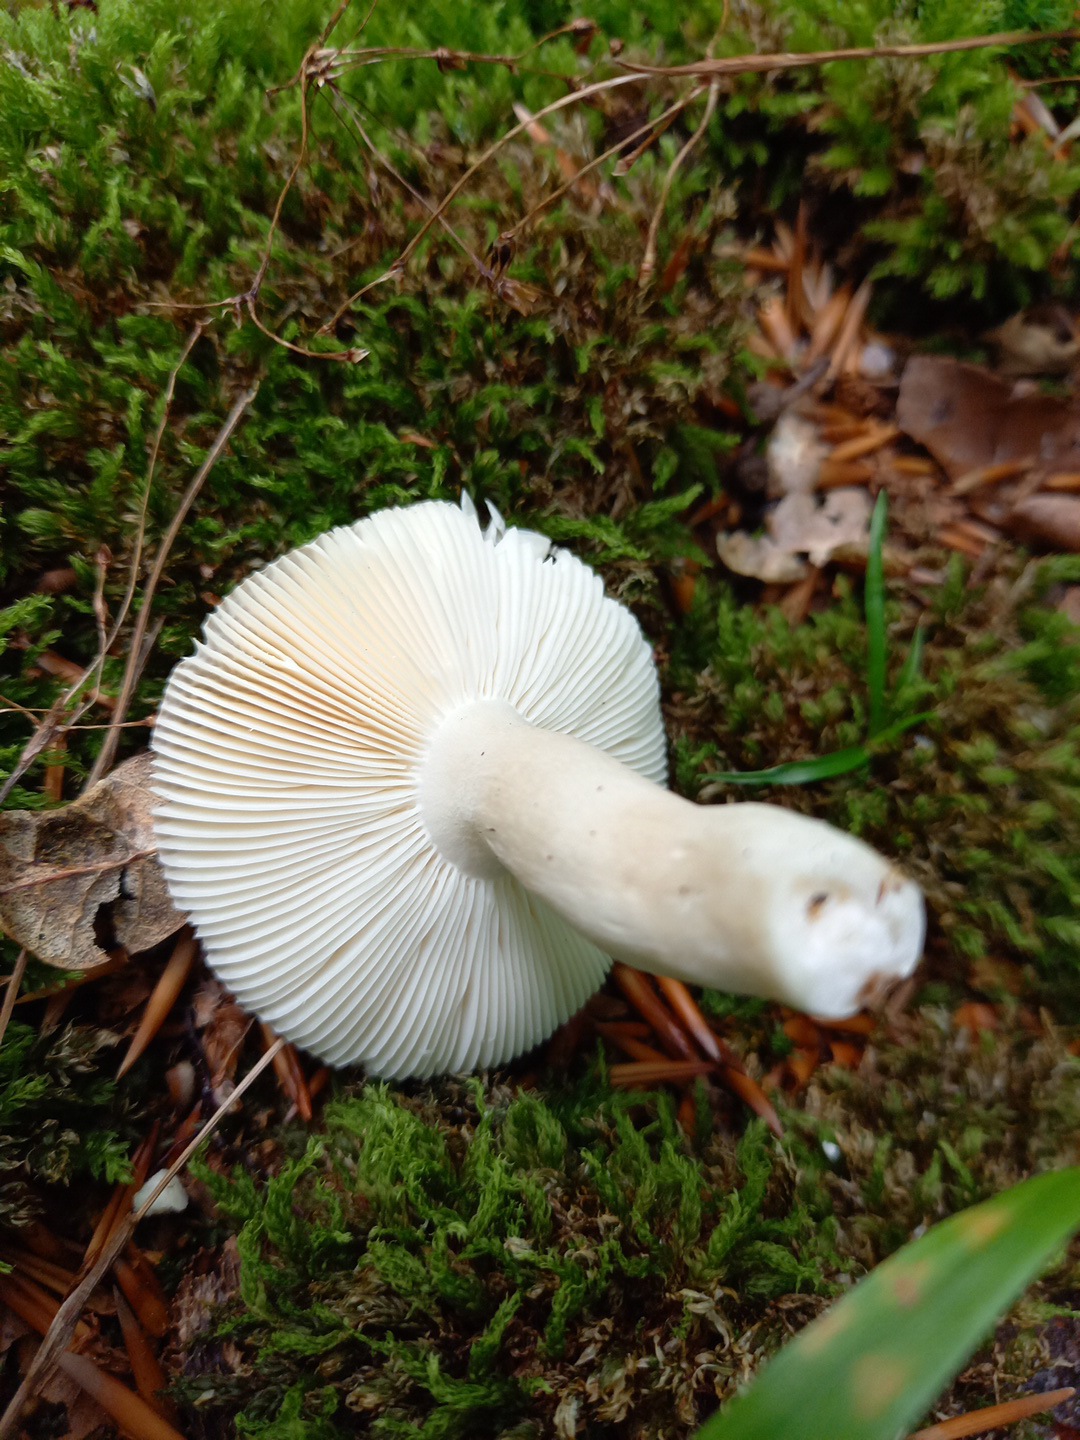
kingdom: Fungi
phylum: Basidiomycota
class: Agaricomycetes
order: Russulales
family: Russulaceae
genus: Russula
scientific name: Russula
